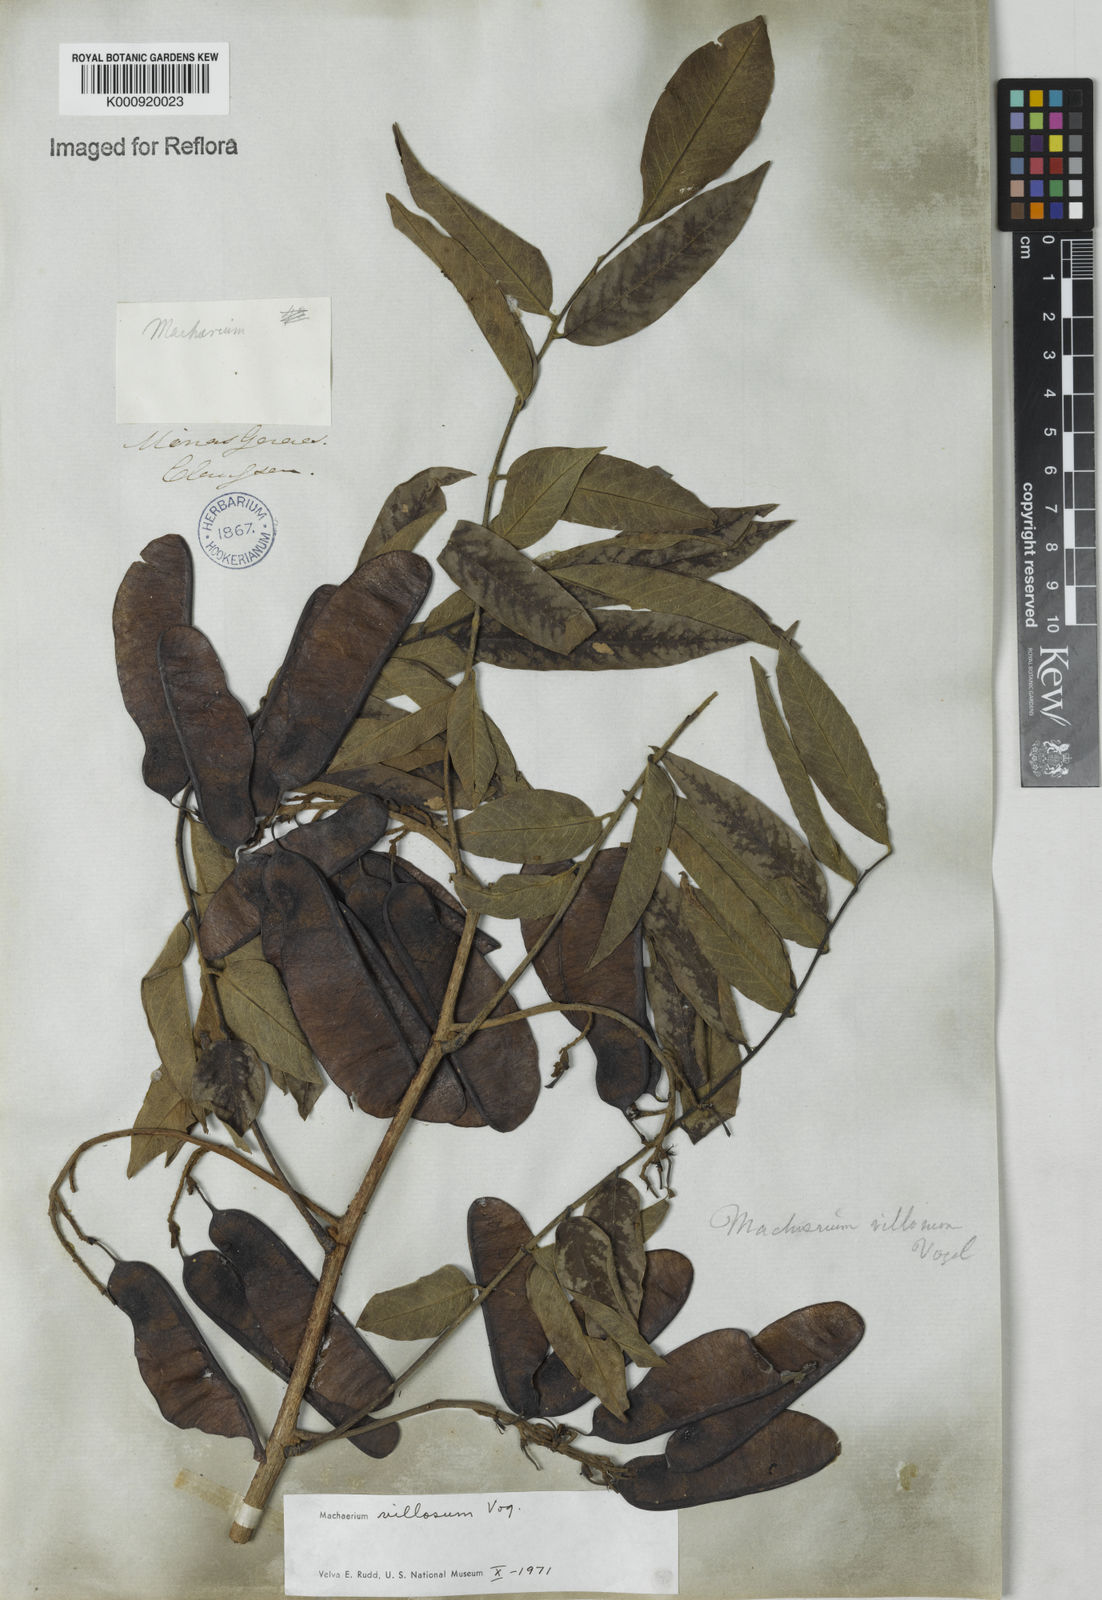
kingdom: Plantae
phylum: Tracheophyta
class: Magnoliopsida
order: Fabales
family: Fabaceae
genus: Machaerium
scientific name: Machaerium villosum
